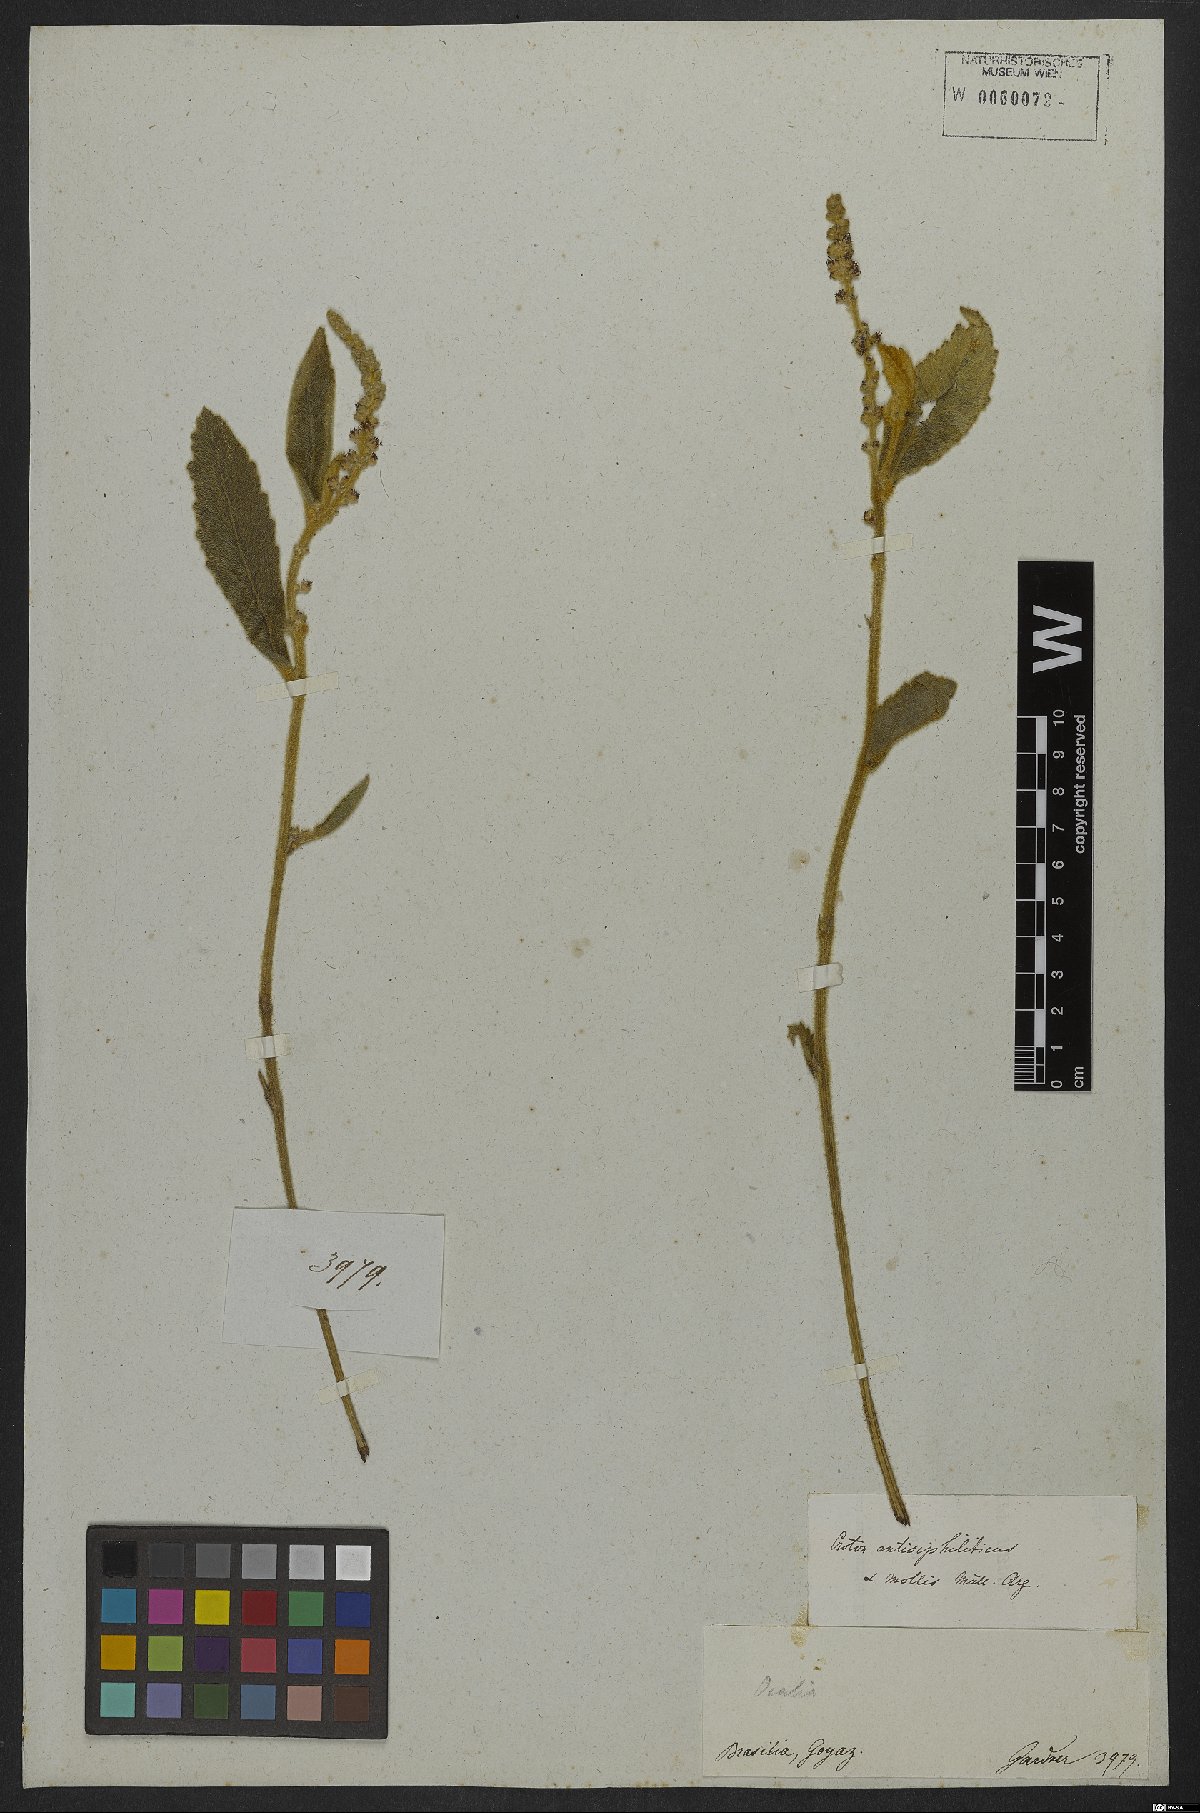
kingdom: Plantae
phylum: Tracheophyta
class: Magnoliopsida
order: Malpighiales
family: Euphorbiaceae
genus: Croton
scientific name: Croton antisyphiliticus
